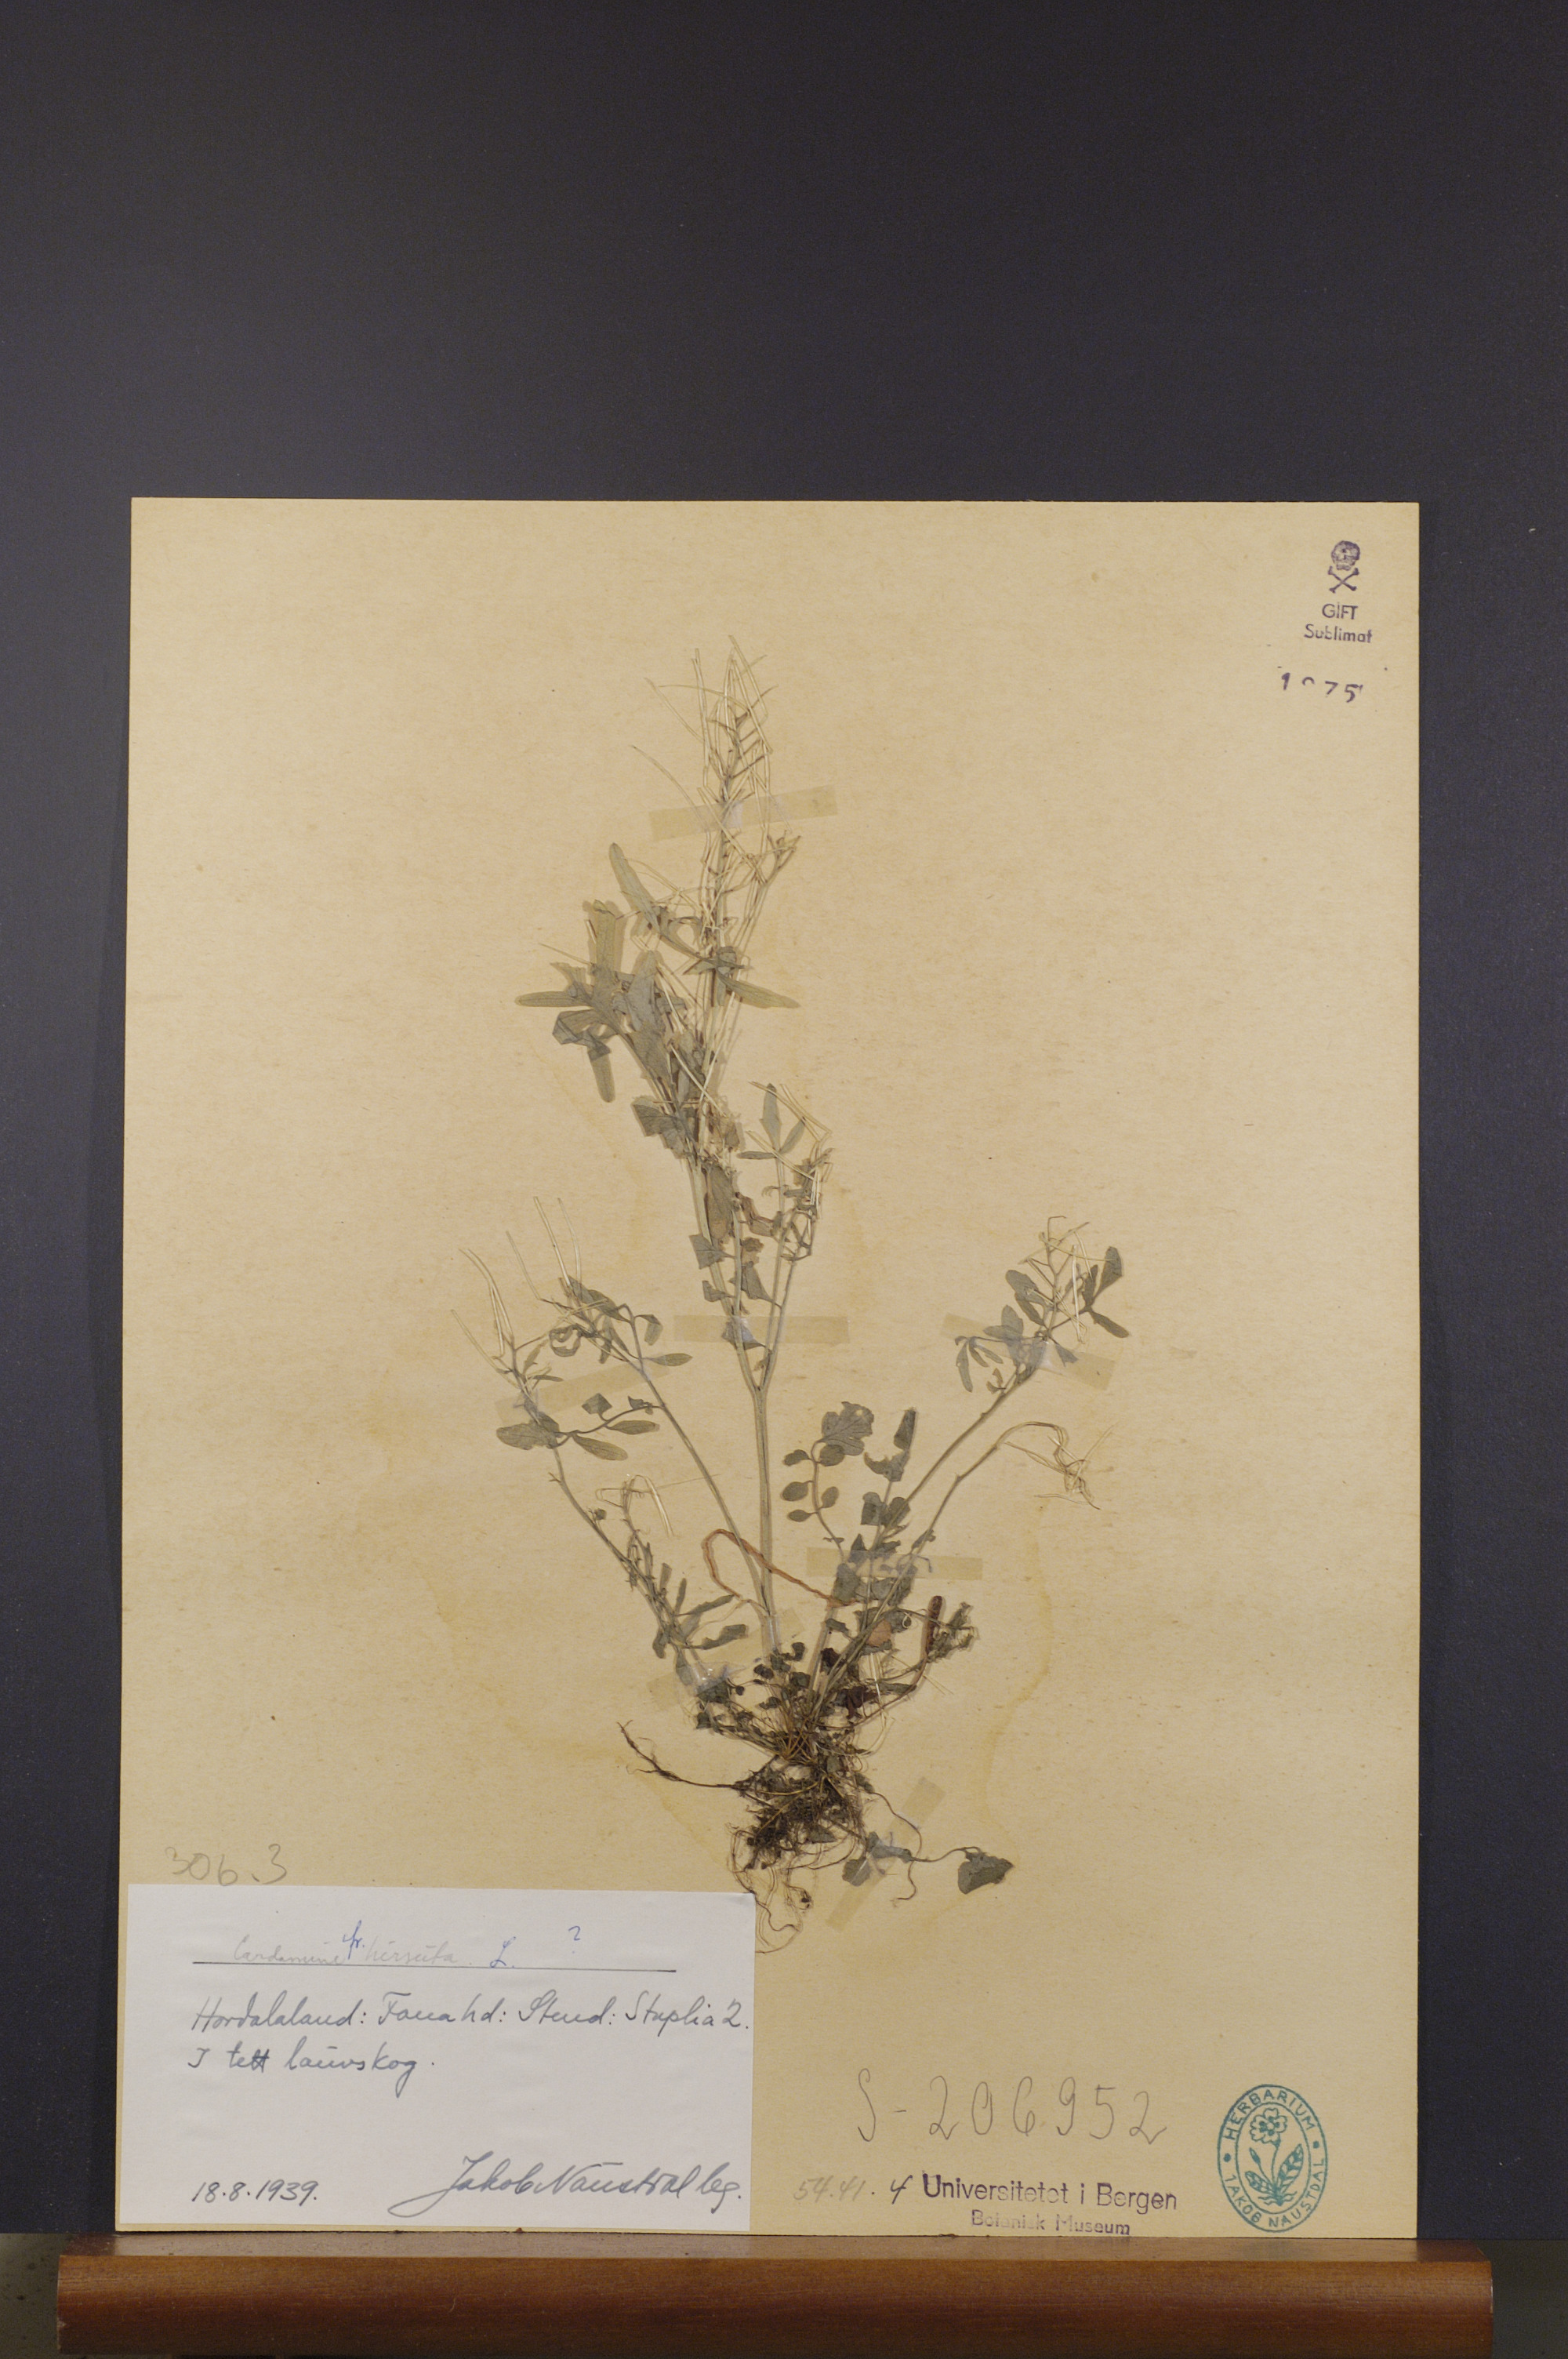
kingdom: Plantae
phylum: Tracheophyta
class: Magnoliopsida
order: Brassicales
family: Brassicaceae
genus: Cardamine
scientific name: Cardamine hirsuta
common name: Hairy bittercress
